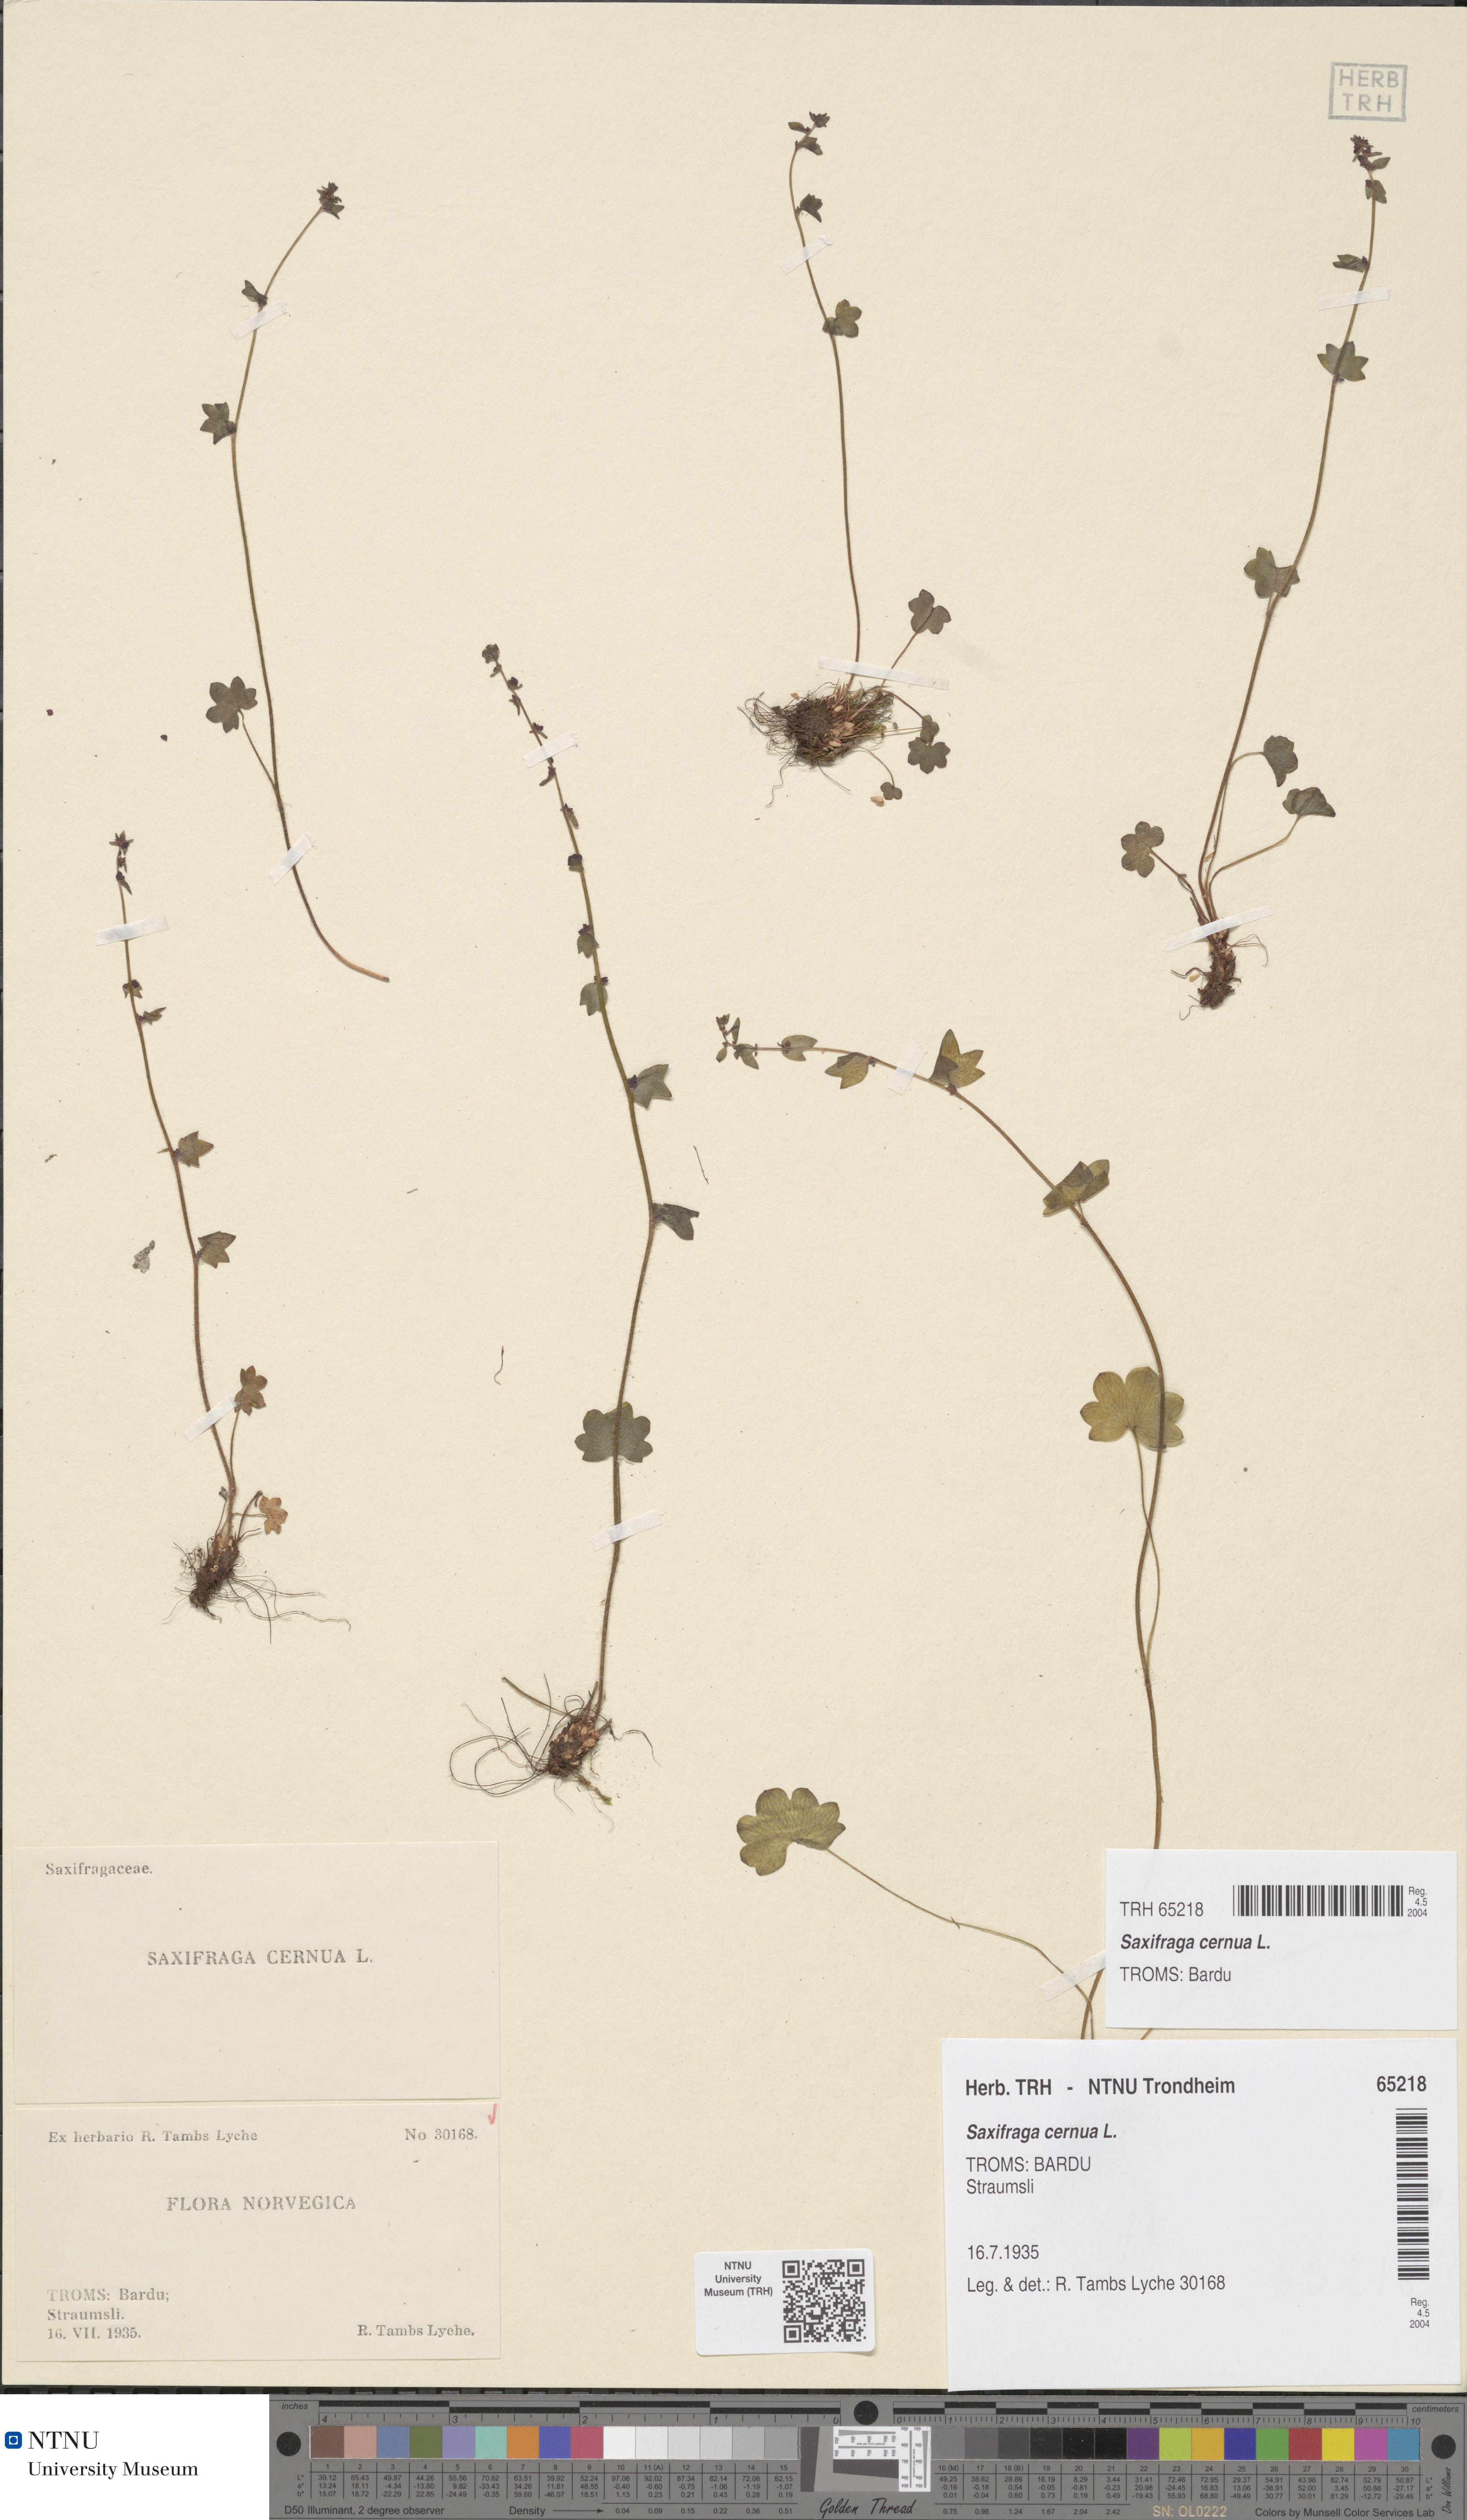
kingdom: Plantae
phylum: Tracheophyta
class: Magnoliopsida
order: Saxifragales
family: Saxifragaceae
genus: Saxifraga
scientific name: Saxifraga cernua
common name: Drooping saxifrage
